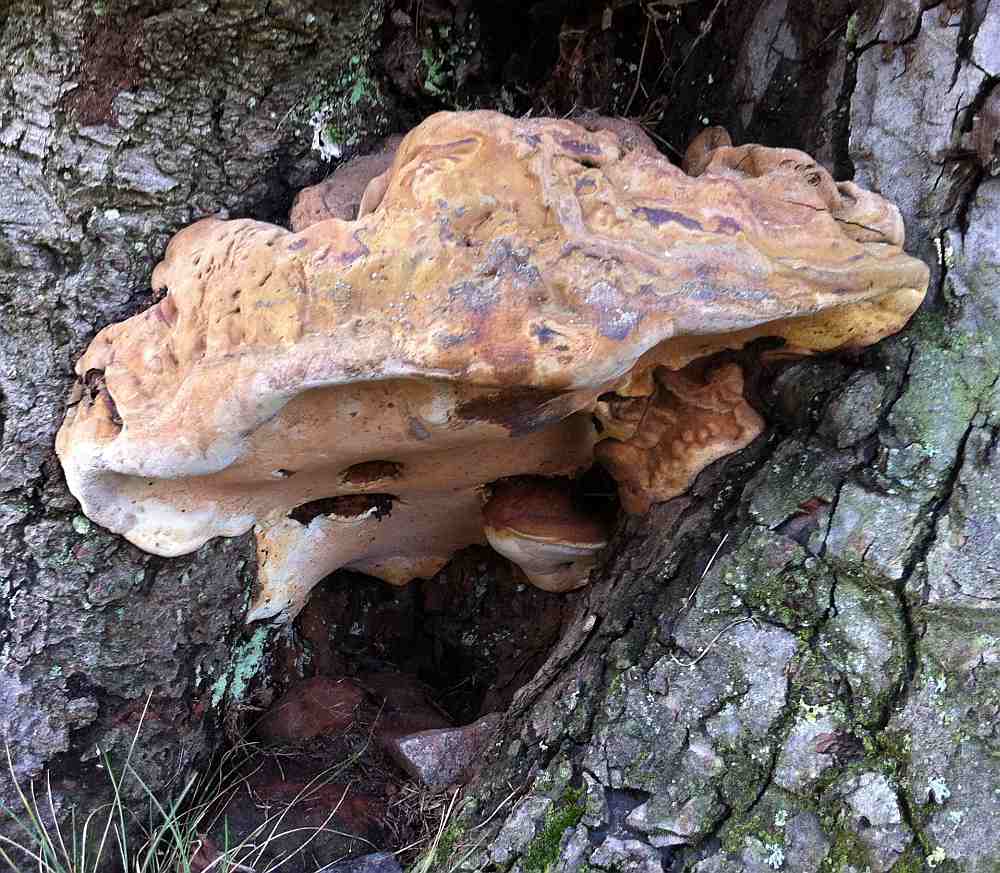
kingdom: Fungi
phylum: Basidiomycota
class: Agaricomycetes
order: Polyporales
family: Polyporaceae
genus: Ganoderma
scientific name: Ganoderma adspersum
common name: grov lakporesvamp
